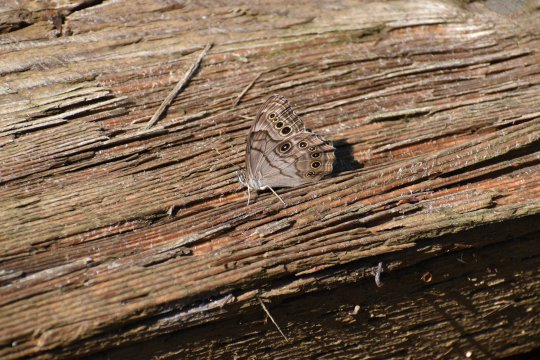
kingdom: Animalia
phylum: Arthropoda
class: Insecta
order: Lepidoptera
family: Nymphalidae
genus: Lethe
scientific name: Lethe anthedon
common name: Northern Pearly-Eye
